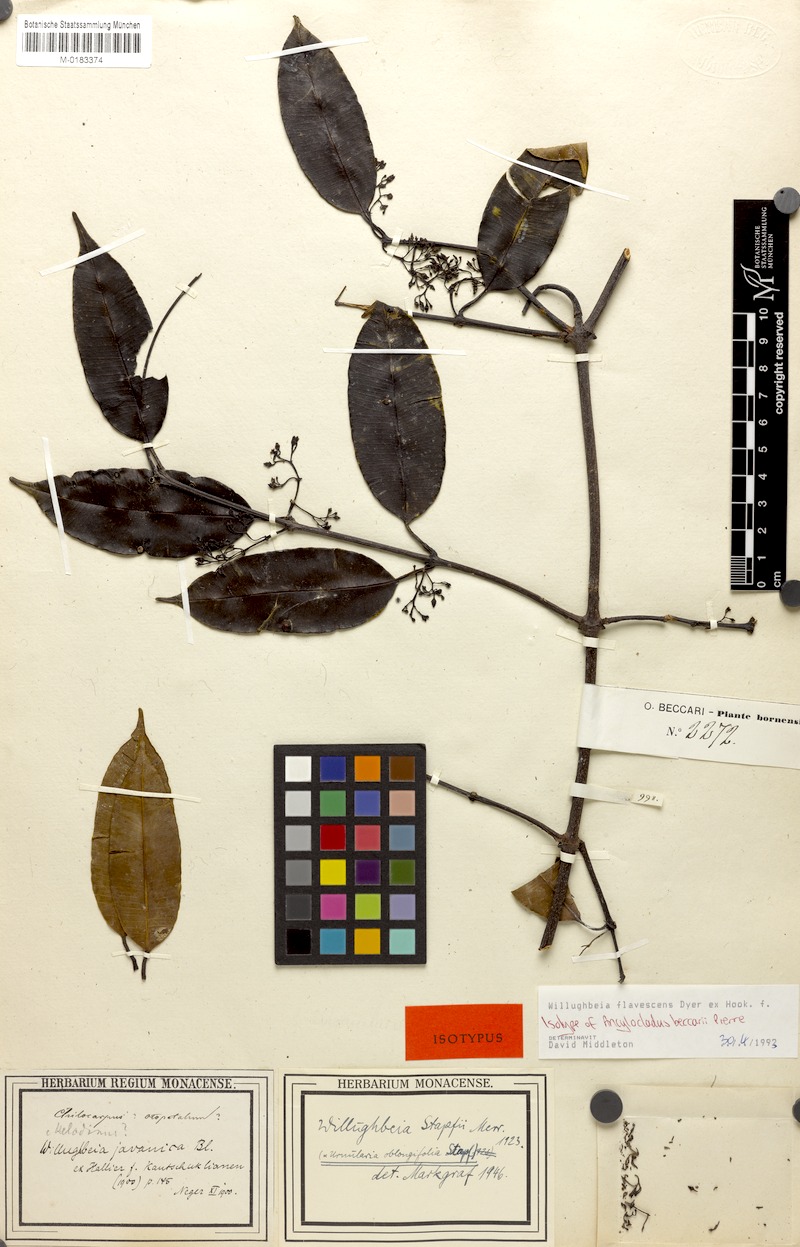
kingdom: Plantae
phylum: Tracheophyta
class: Magnoliopsida
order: Gentianales
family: Apocynaceae
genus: Willughbeia
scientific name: Willughbeia flavescens
